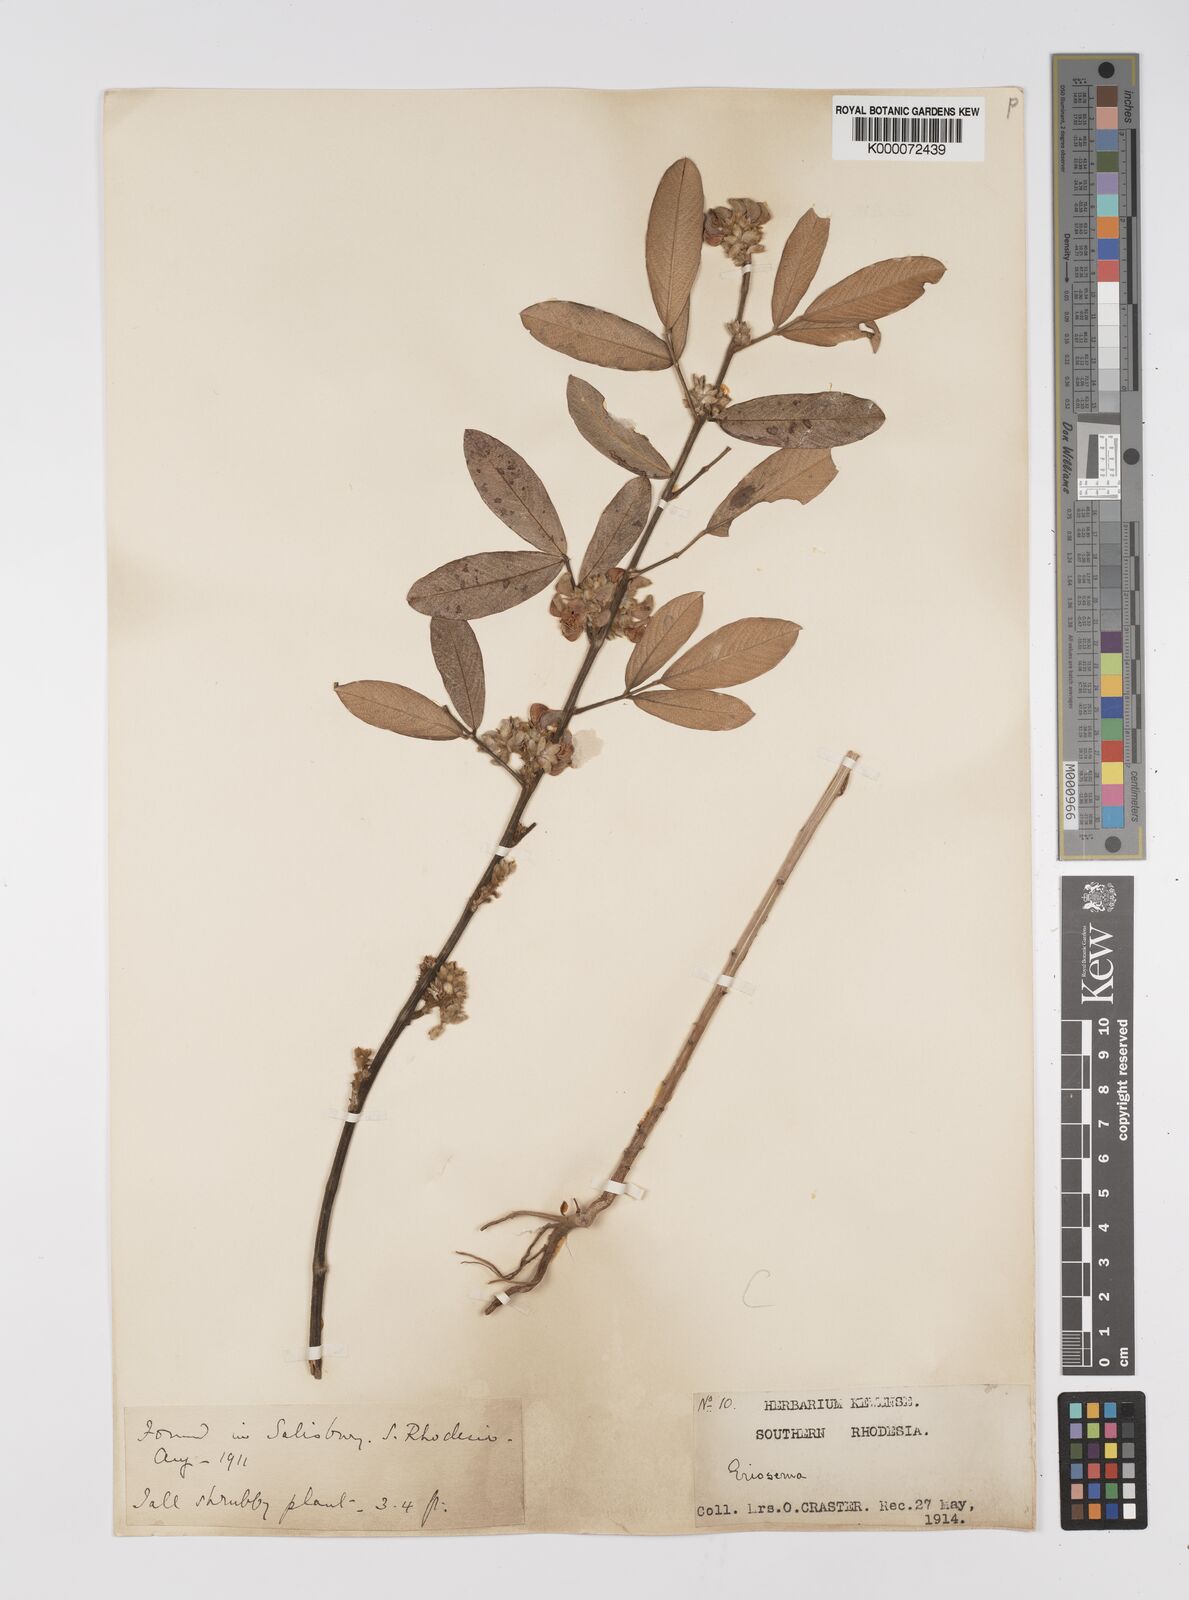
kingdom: Plantae
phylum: Tracheophyta
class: Magnoliopsida
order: Fabales
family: Fabaceae
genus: Eriosema
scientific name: Eriosema affine
